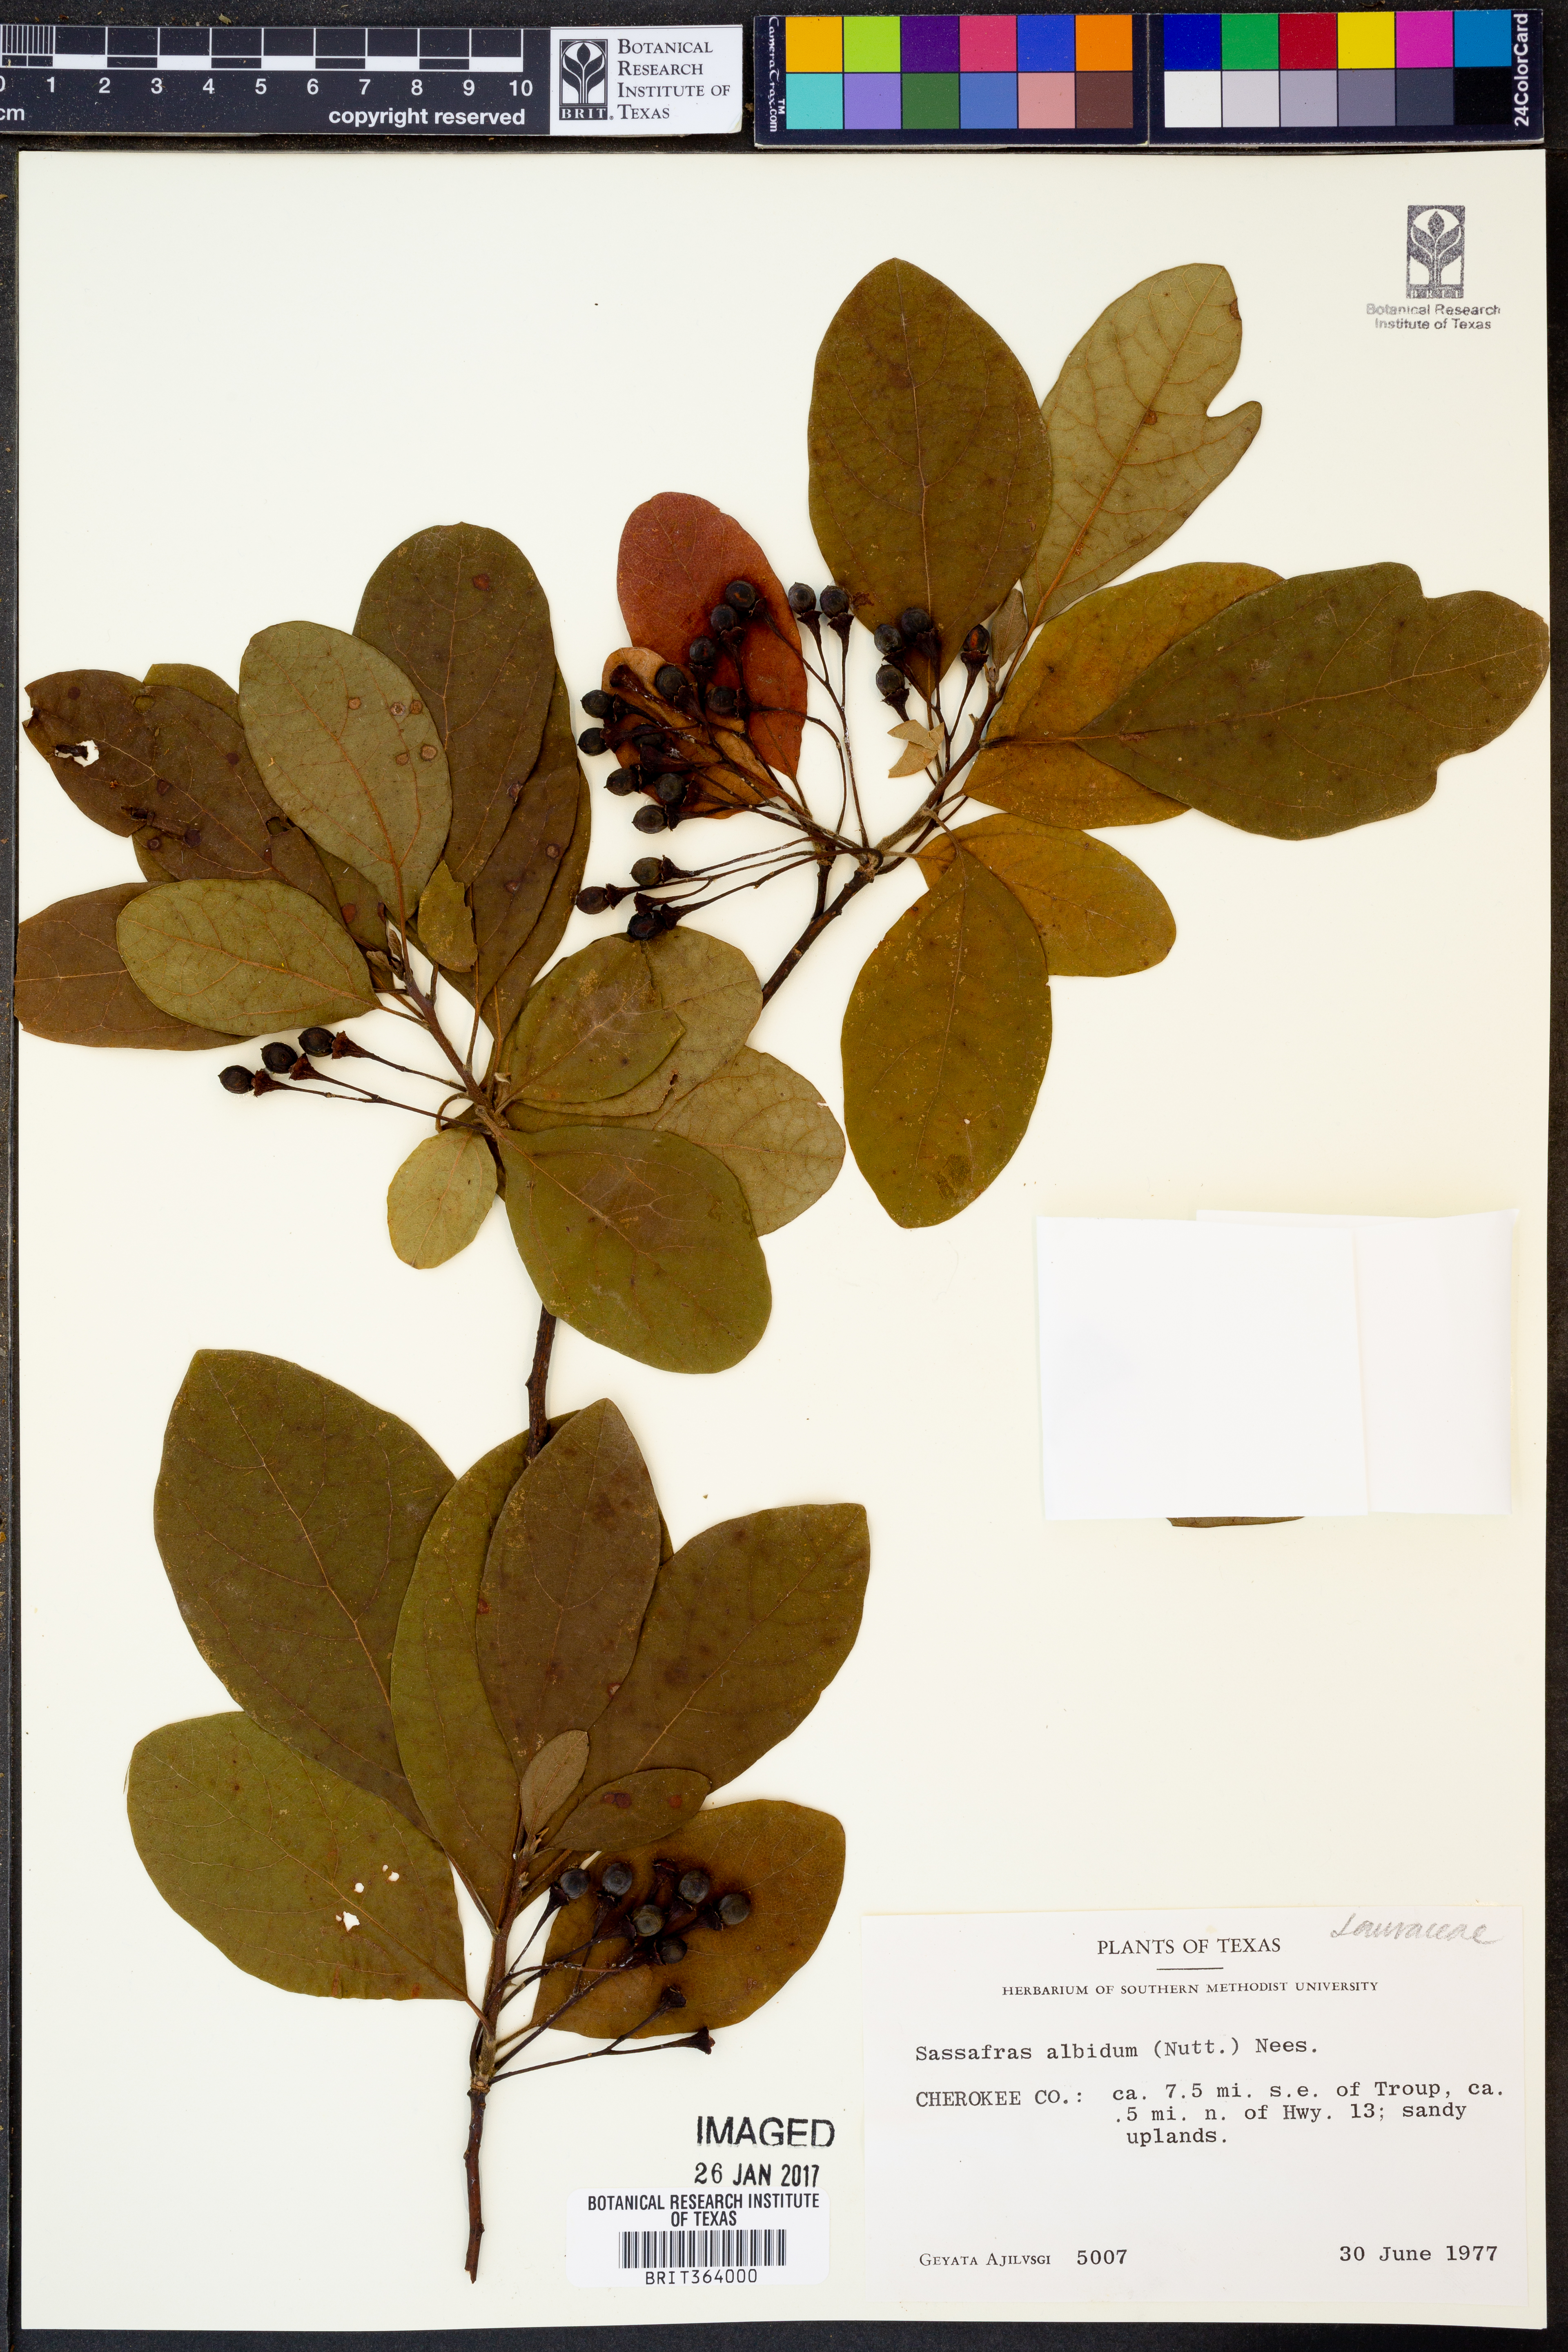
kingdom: Plantae
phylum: Tracheophyta
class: Magnoliopsida
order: Laurales
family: Lauraceae
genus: Sassafras
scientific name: Sassafras albidum
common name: Sassafras
